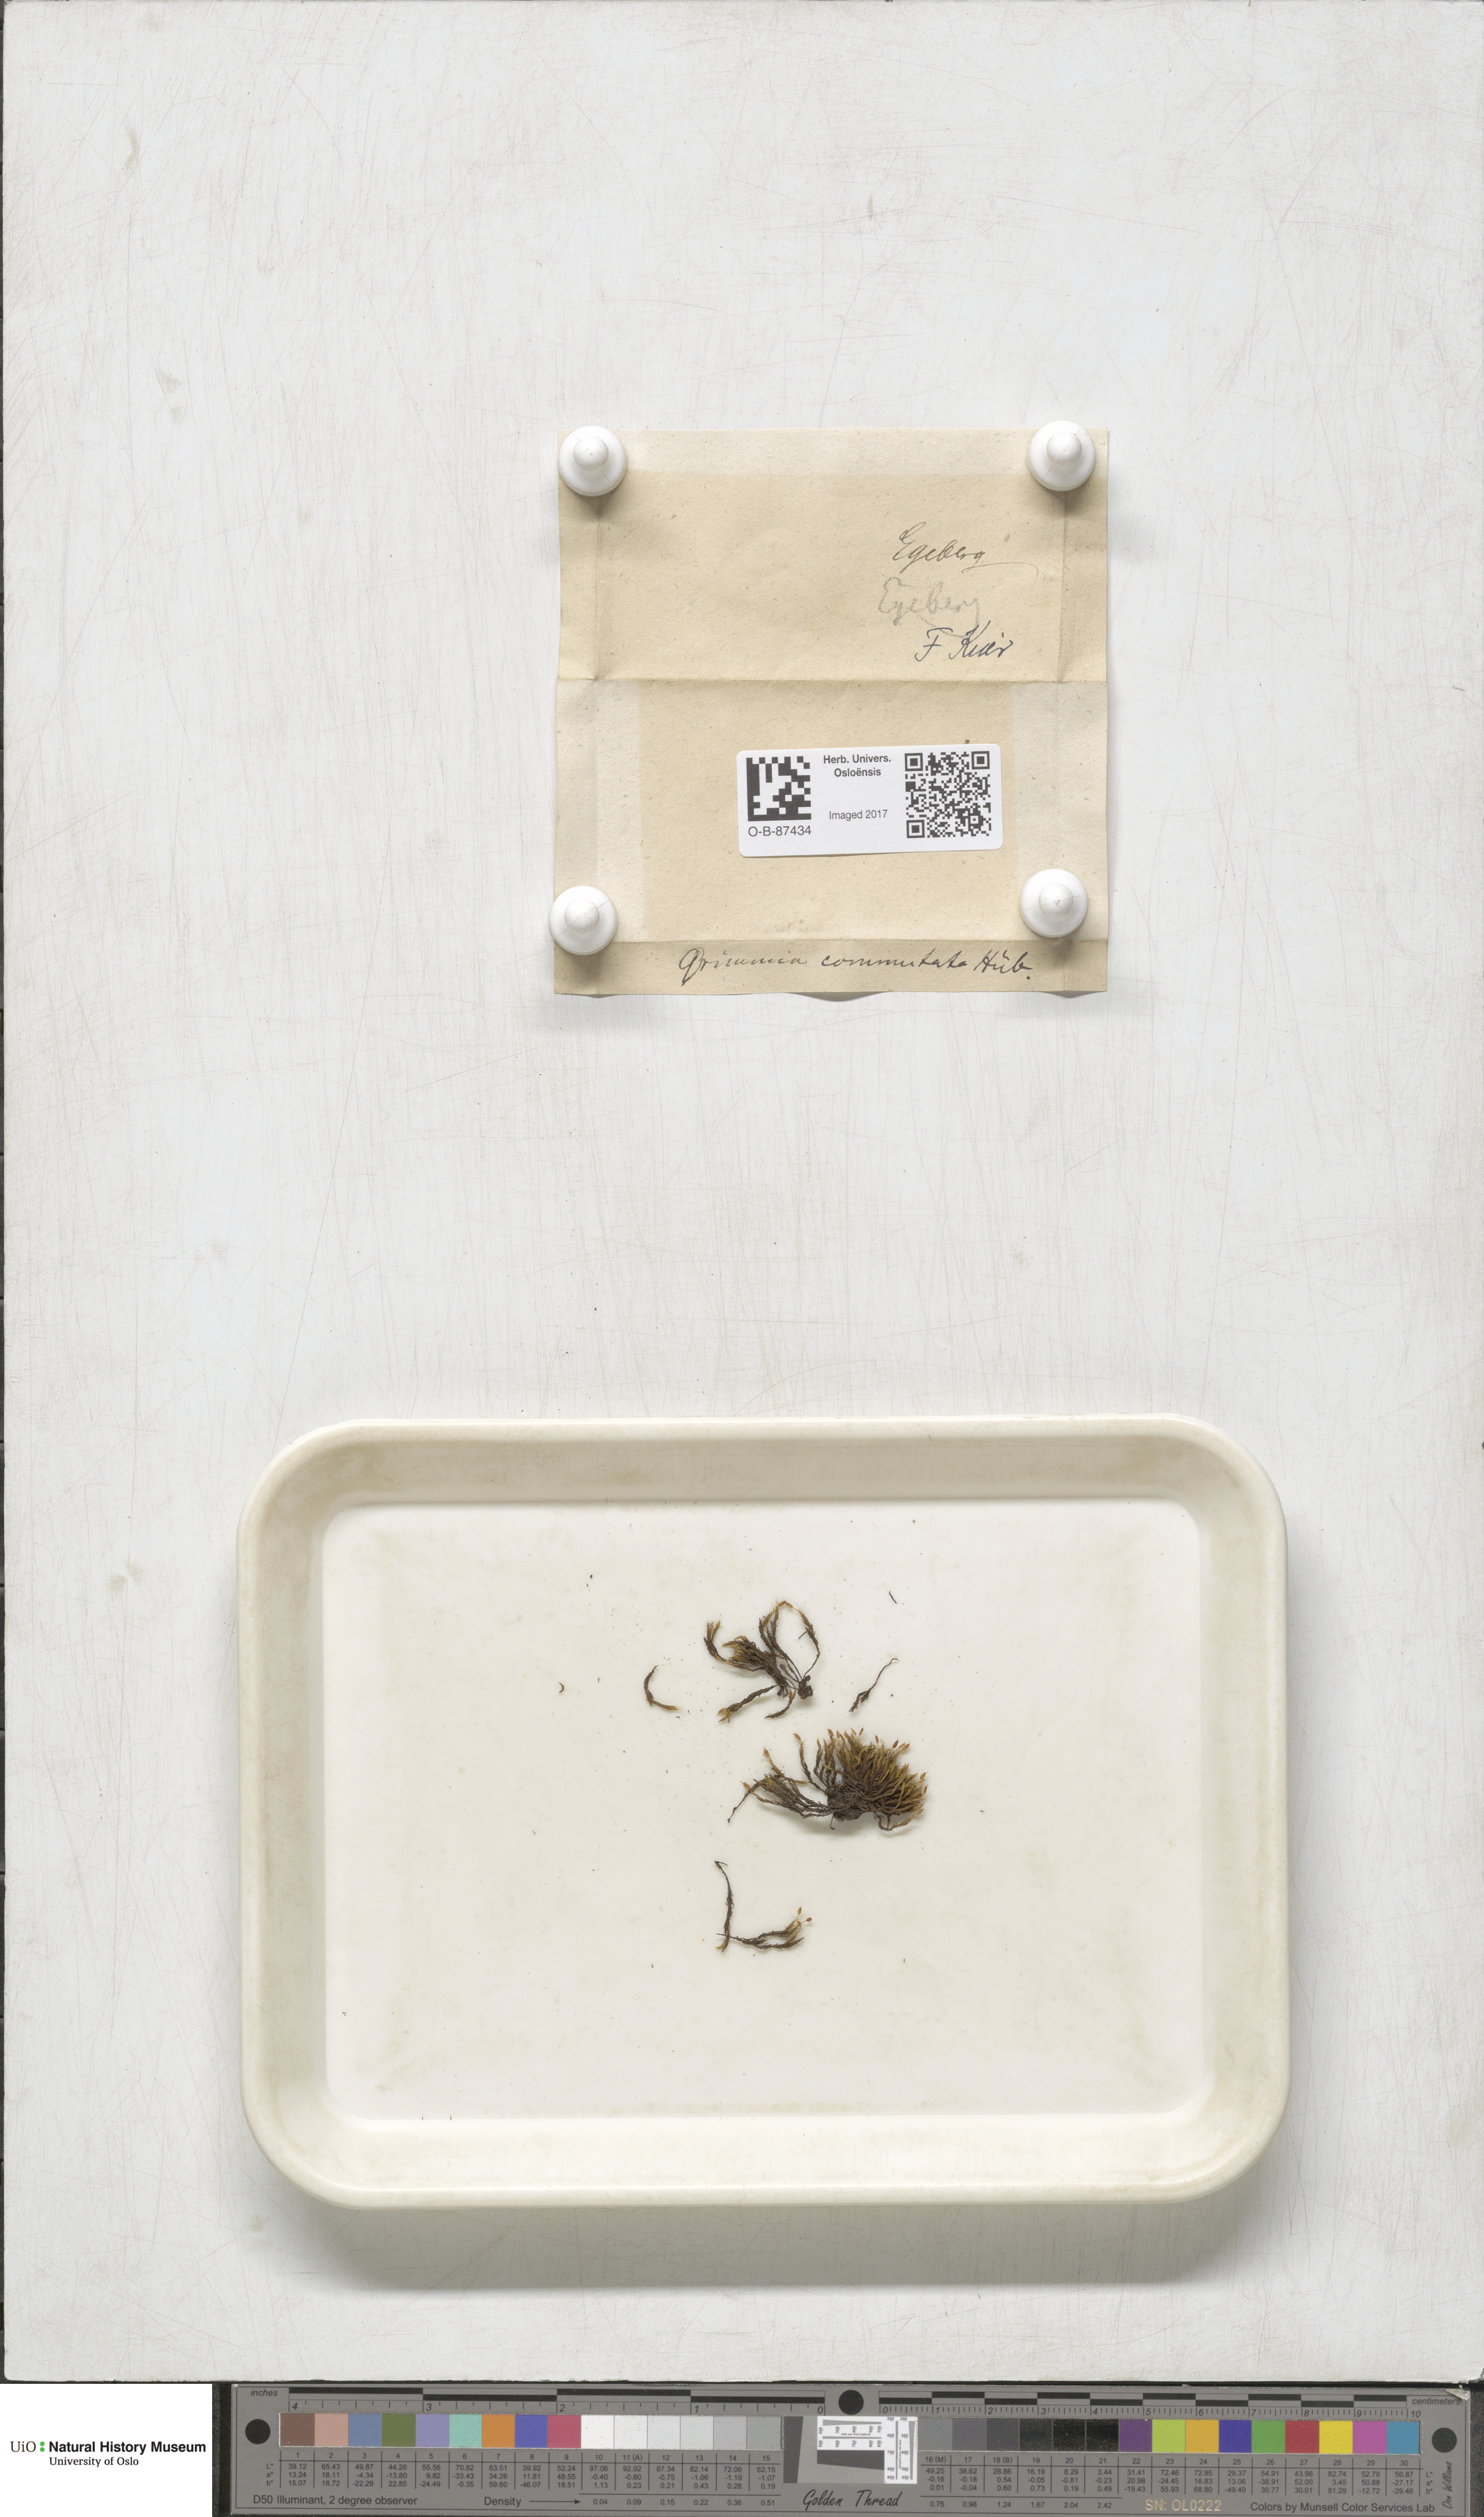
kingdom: Plantae
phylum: Bryophyta
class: Bryopsida
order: Grimmiales
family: Grimmiaceae
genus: Grimmia
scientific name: Grimmia ovalis
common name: Oval grimmia
